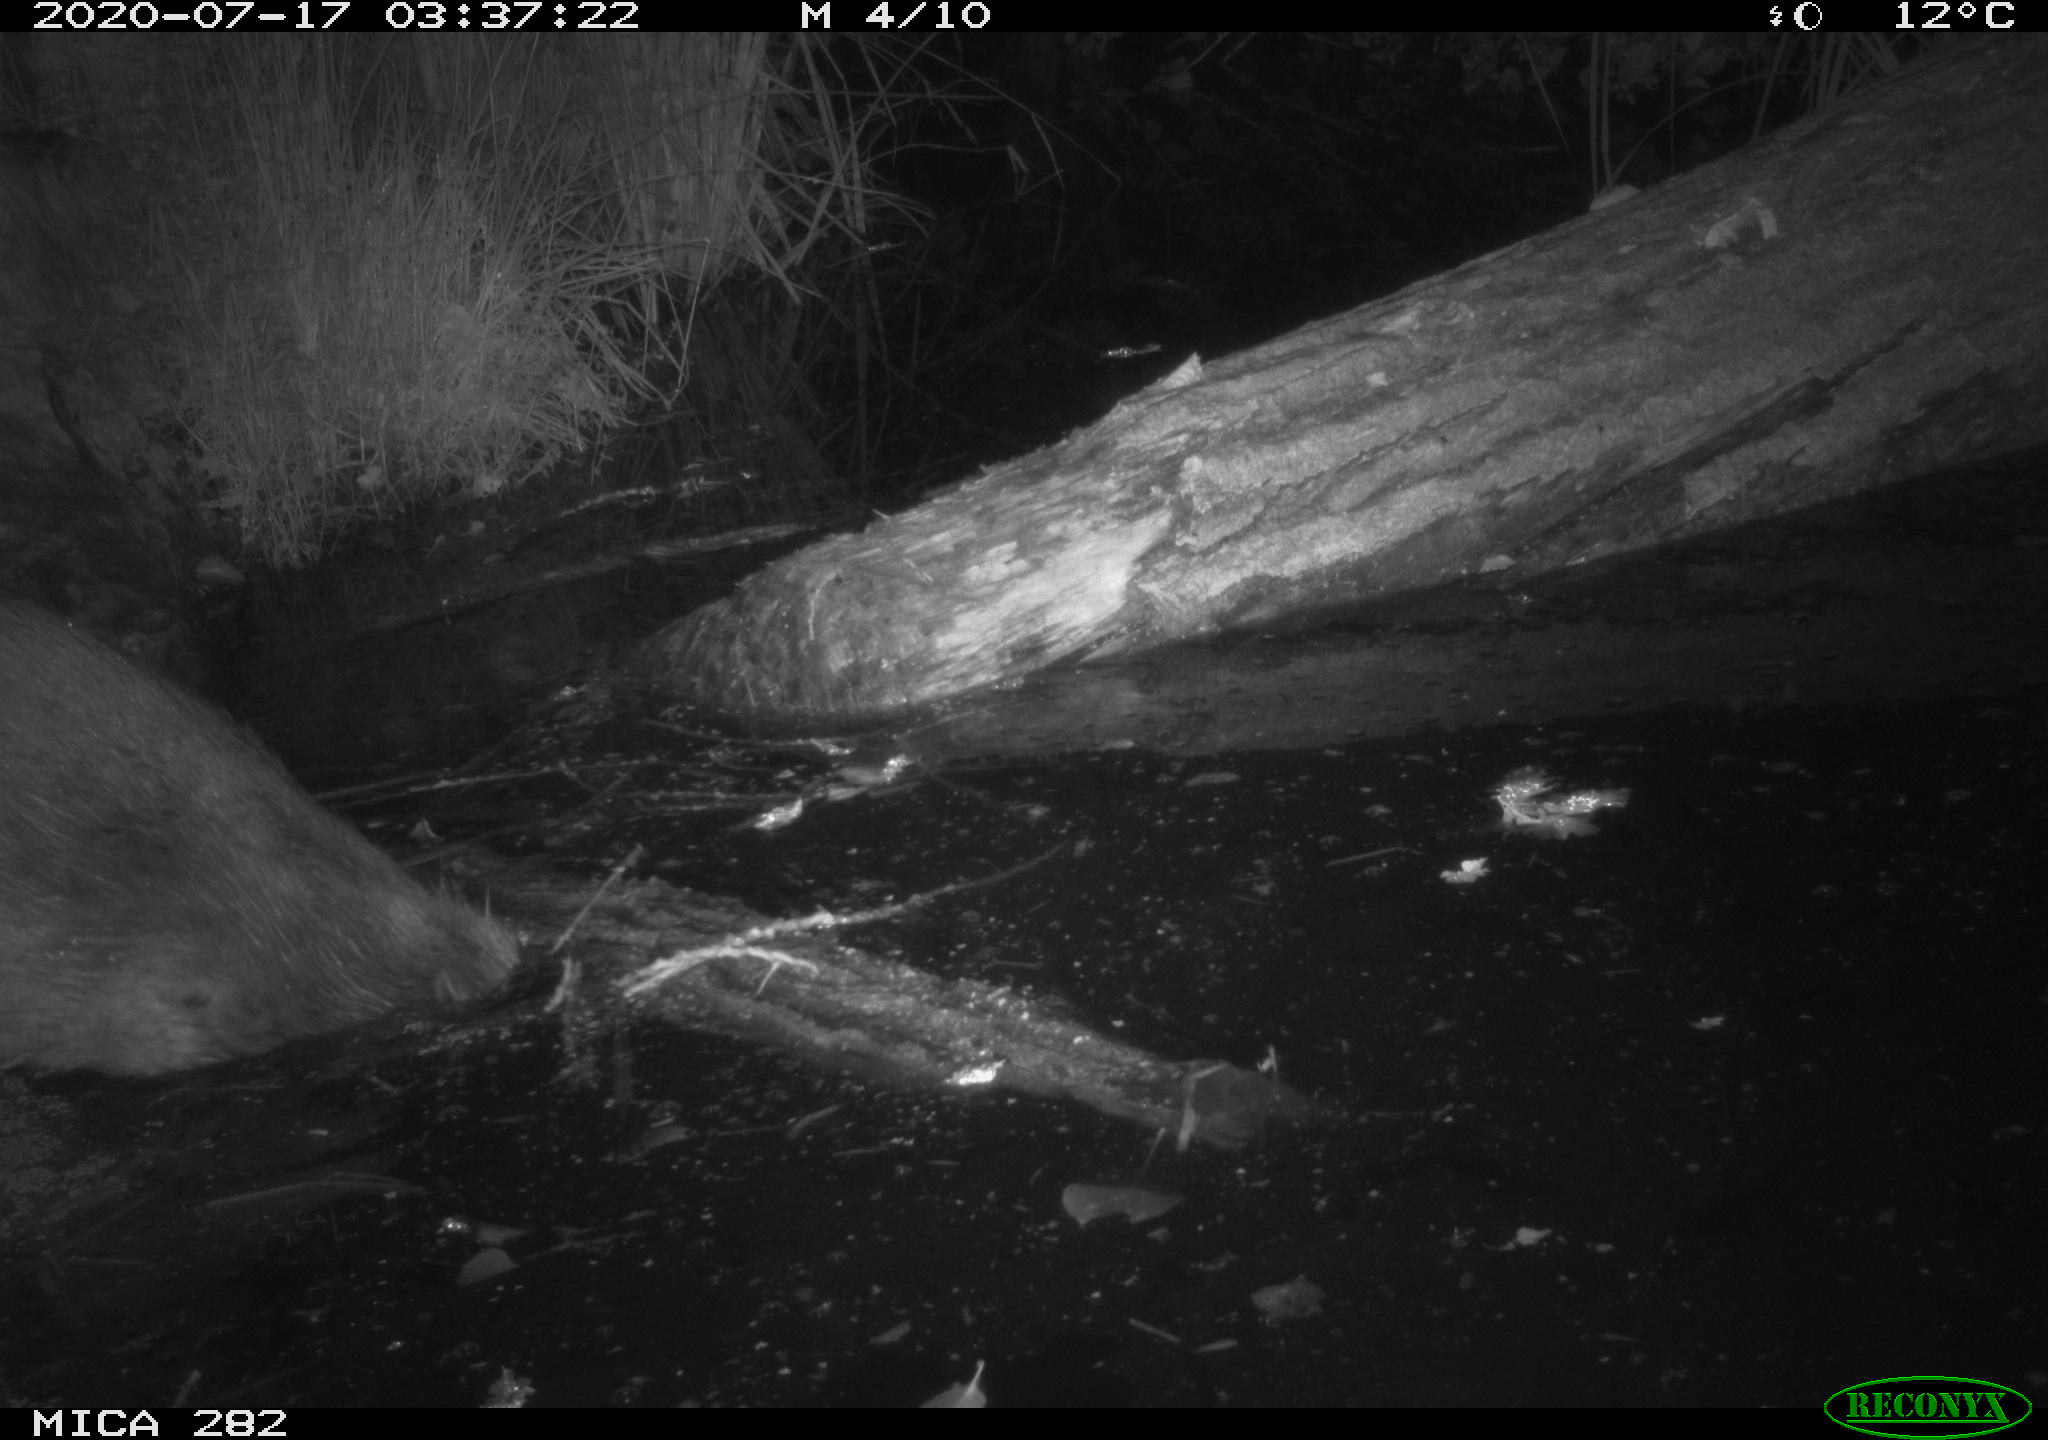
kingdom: Animalia
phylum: Chordata
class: Mammalia
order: Rodentia
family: Castoridae
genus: Castor
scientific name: Castor fiber
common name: Eurasian beaver
